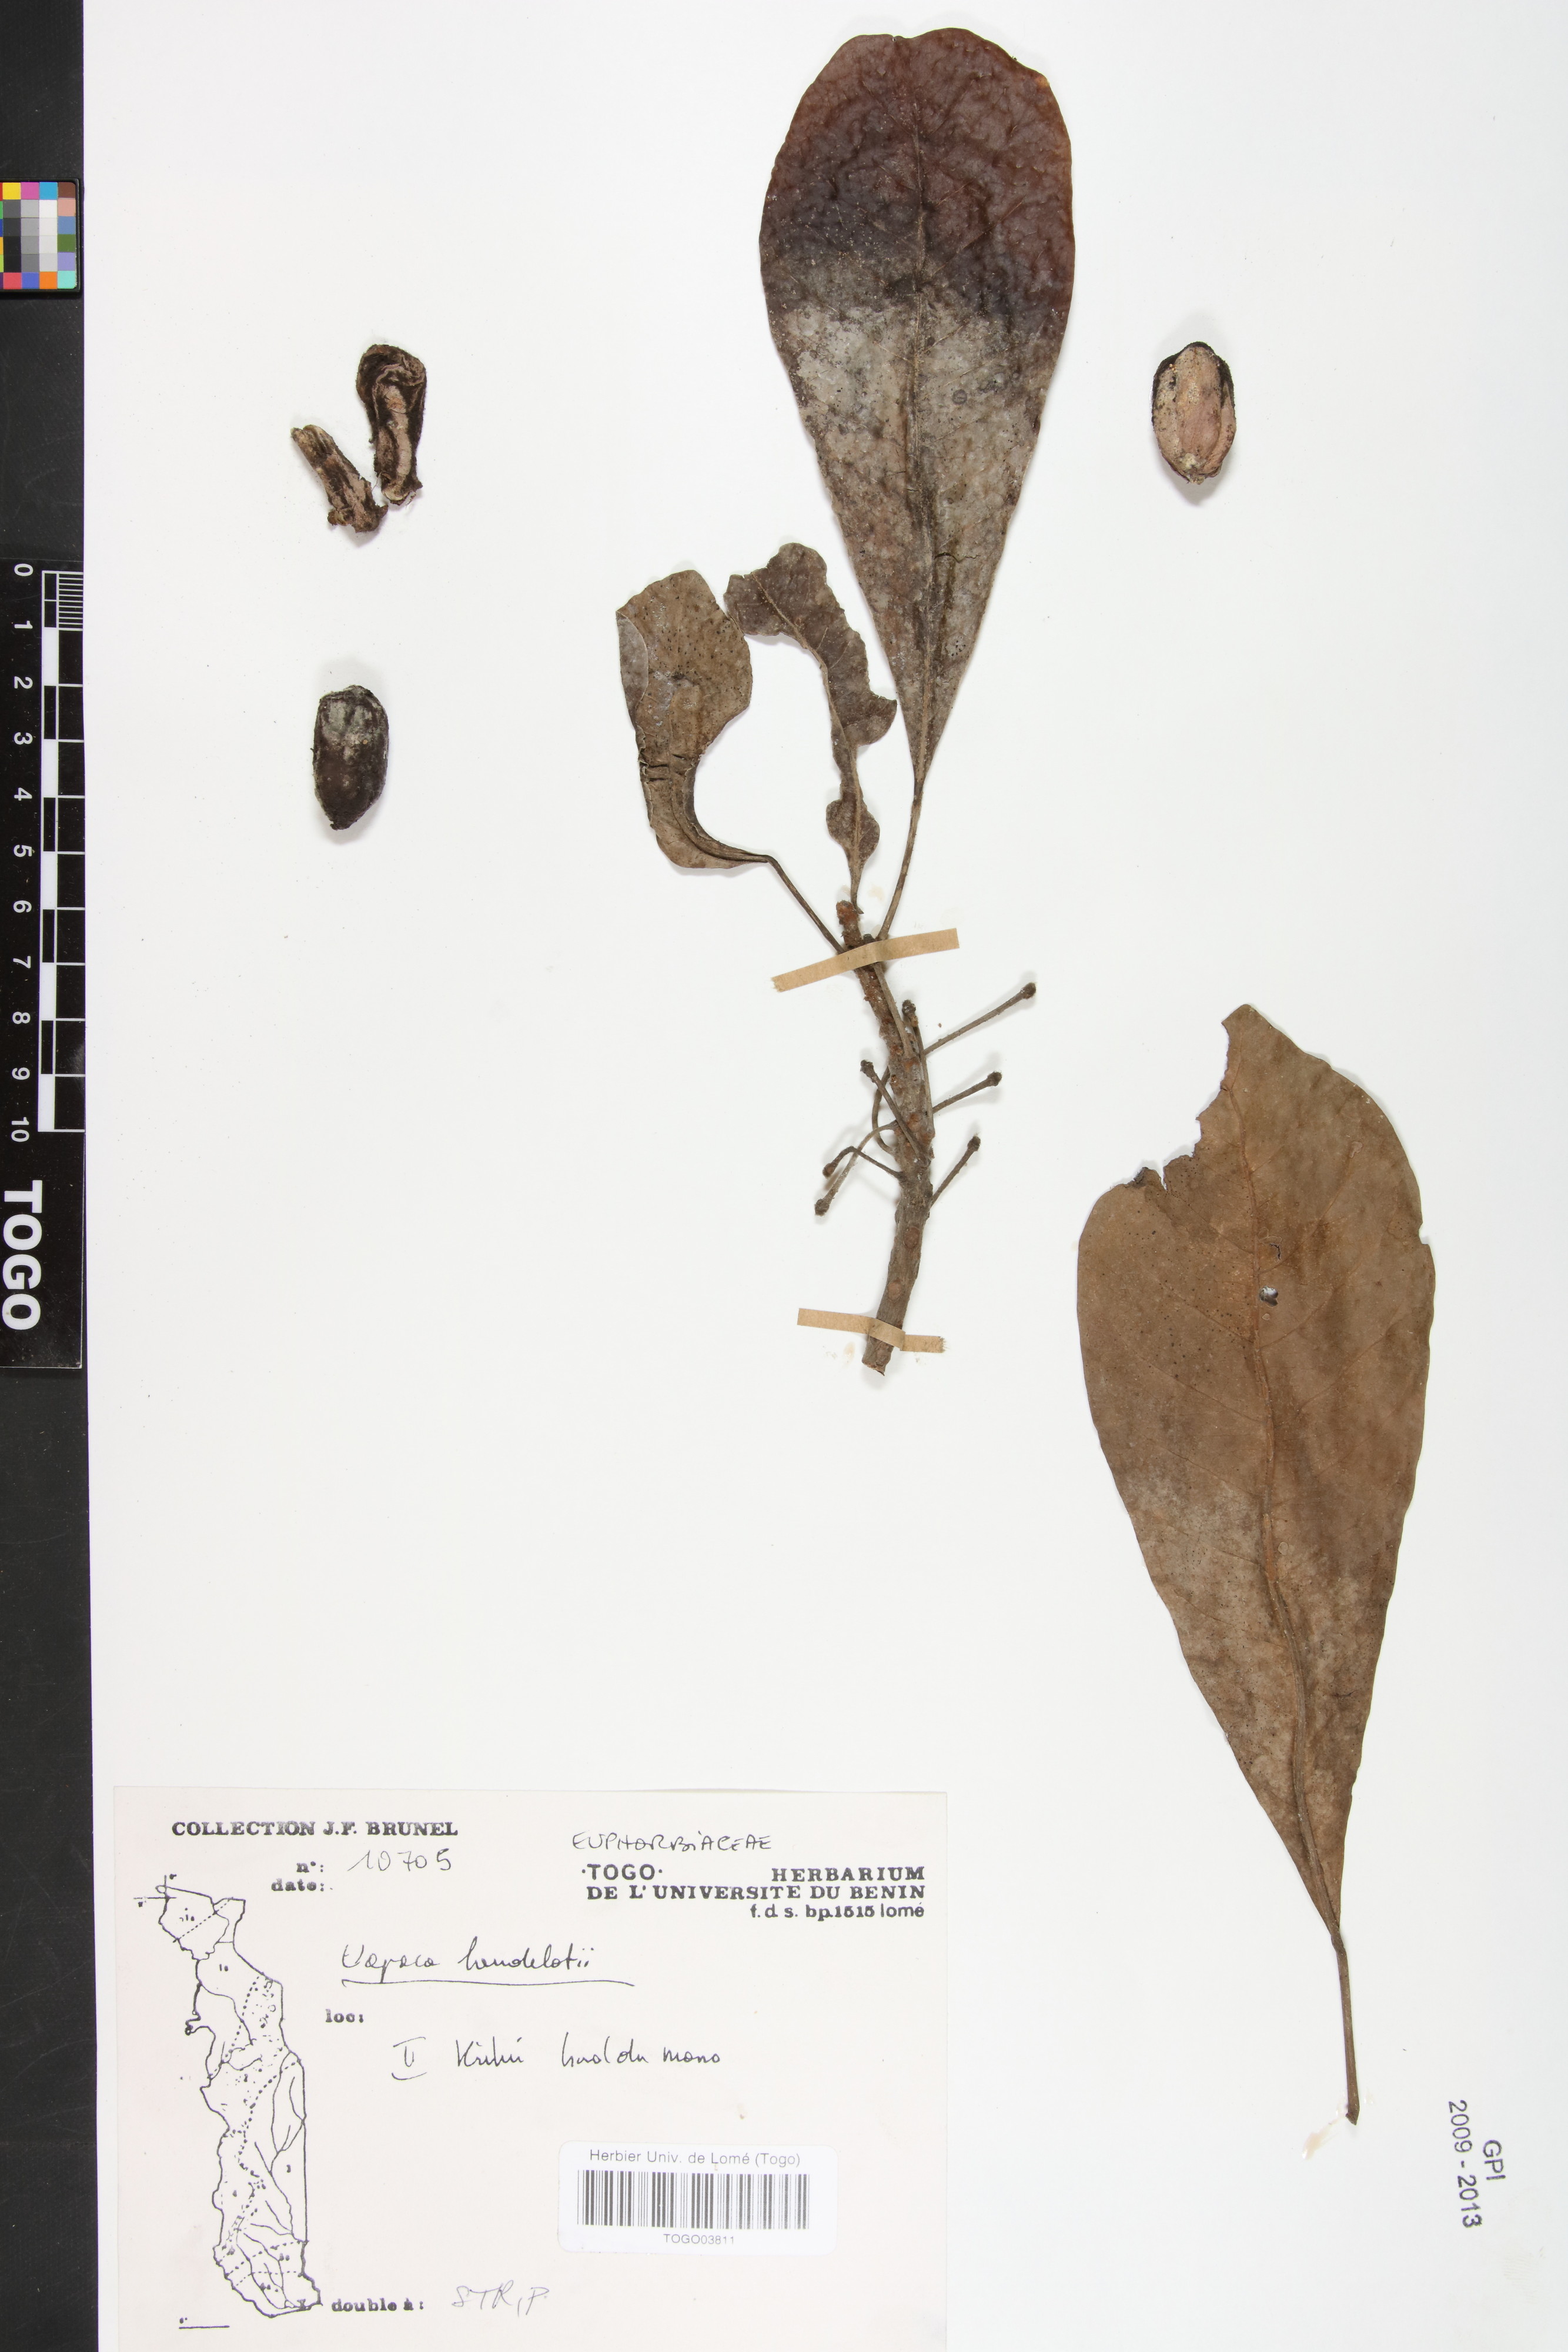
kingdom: Plantae
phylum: Tracheophyta
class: Magnoliopsida
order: Malpighiales
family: Phyllanthaceae
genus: Uapaca
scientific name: Uapaca heudelotii
